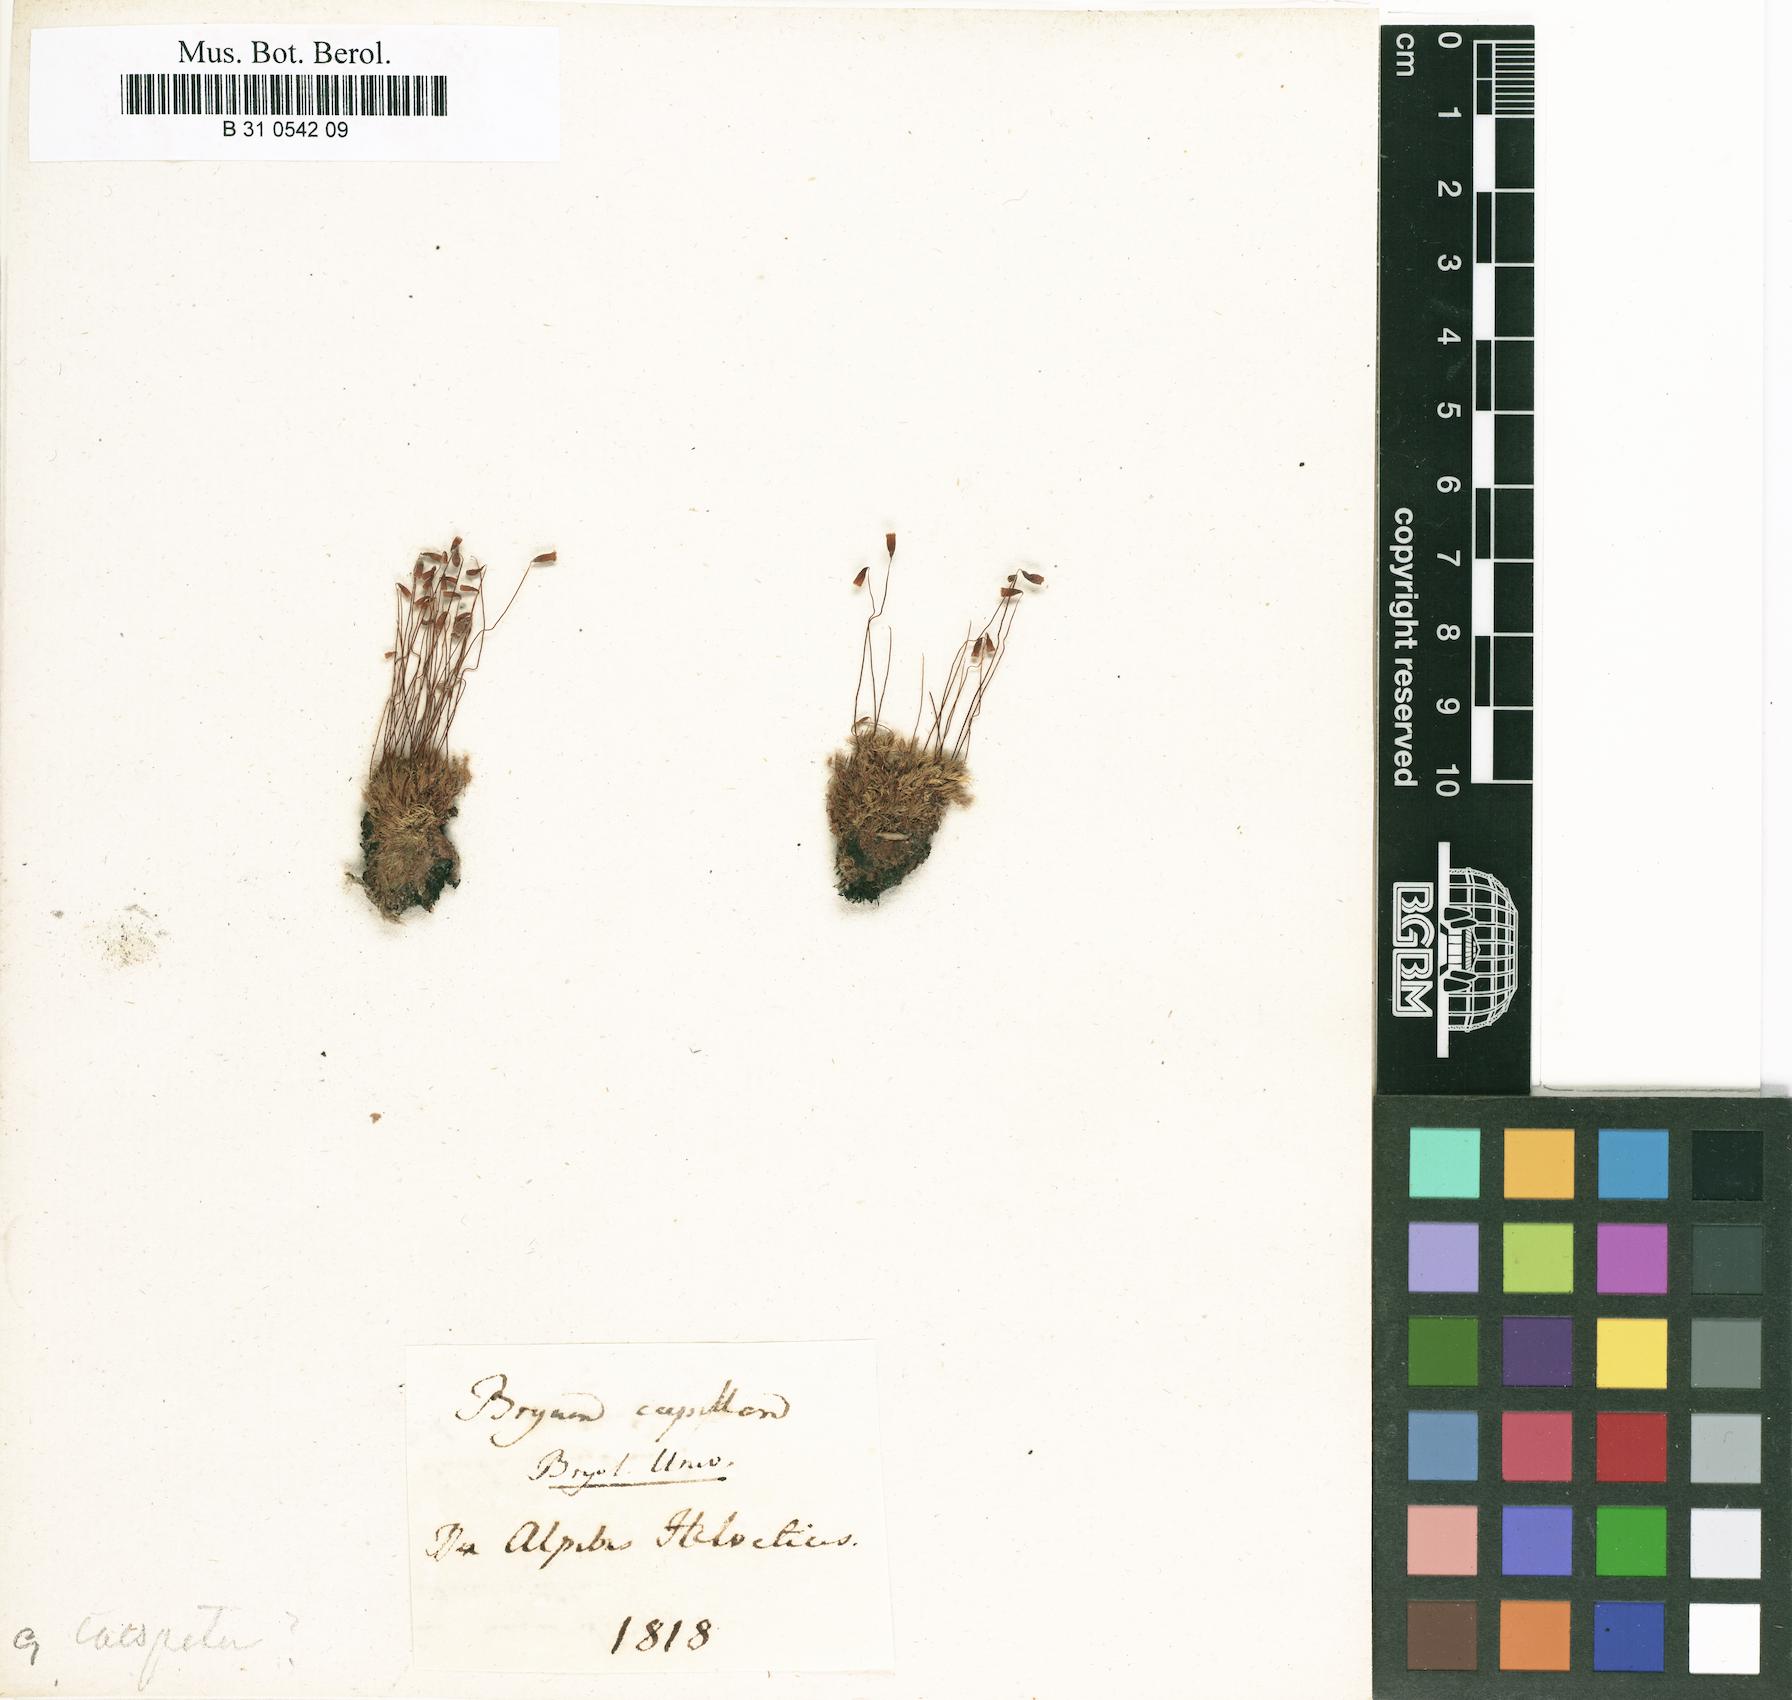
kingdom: Plantae
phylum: Bryophyta
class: Bryopsida
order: Bryales
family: Bryaceae
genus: Rosulabryum
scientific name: Rosulabryum capillare
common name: Capillary thread-moss
